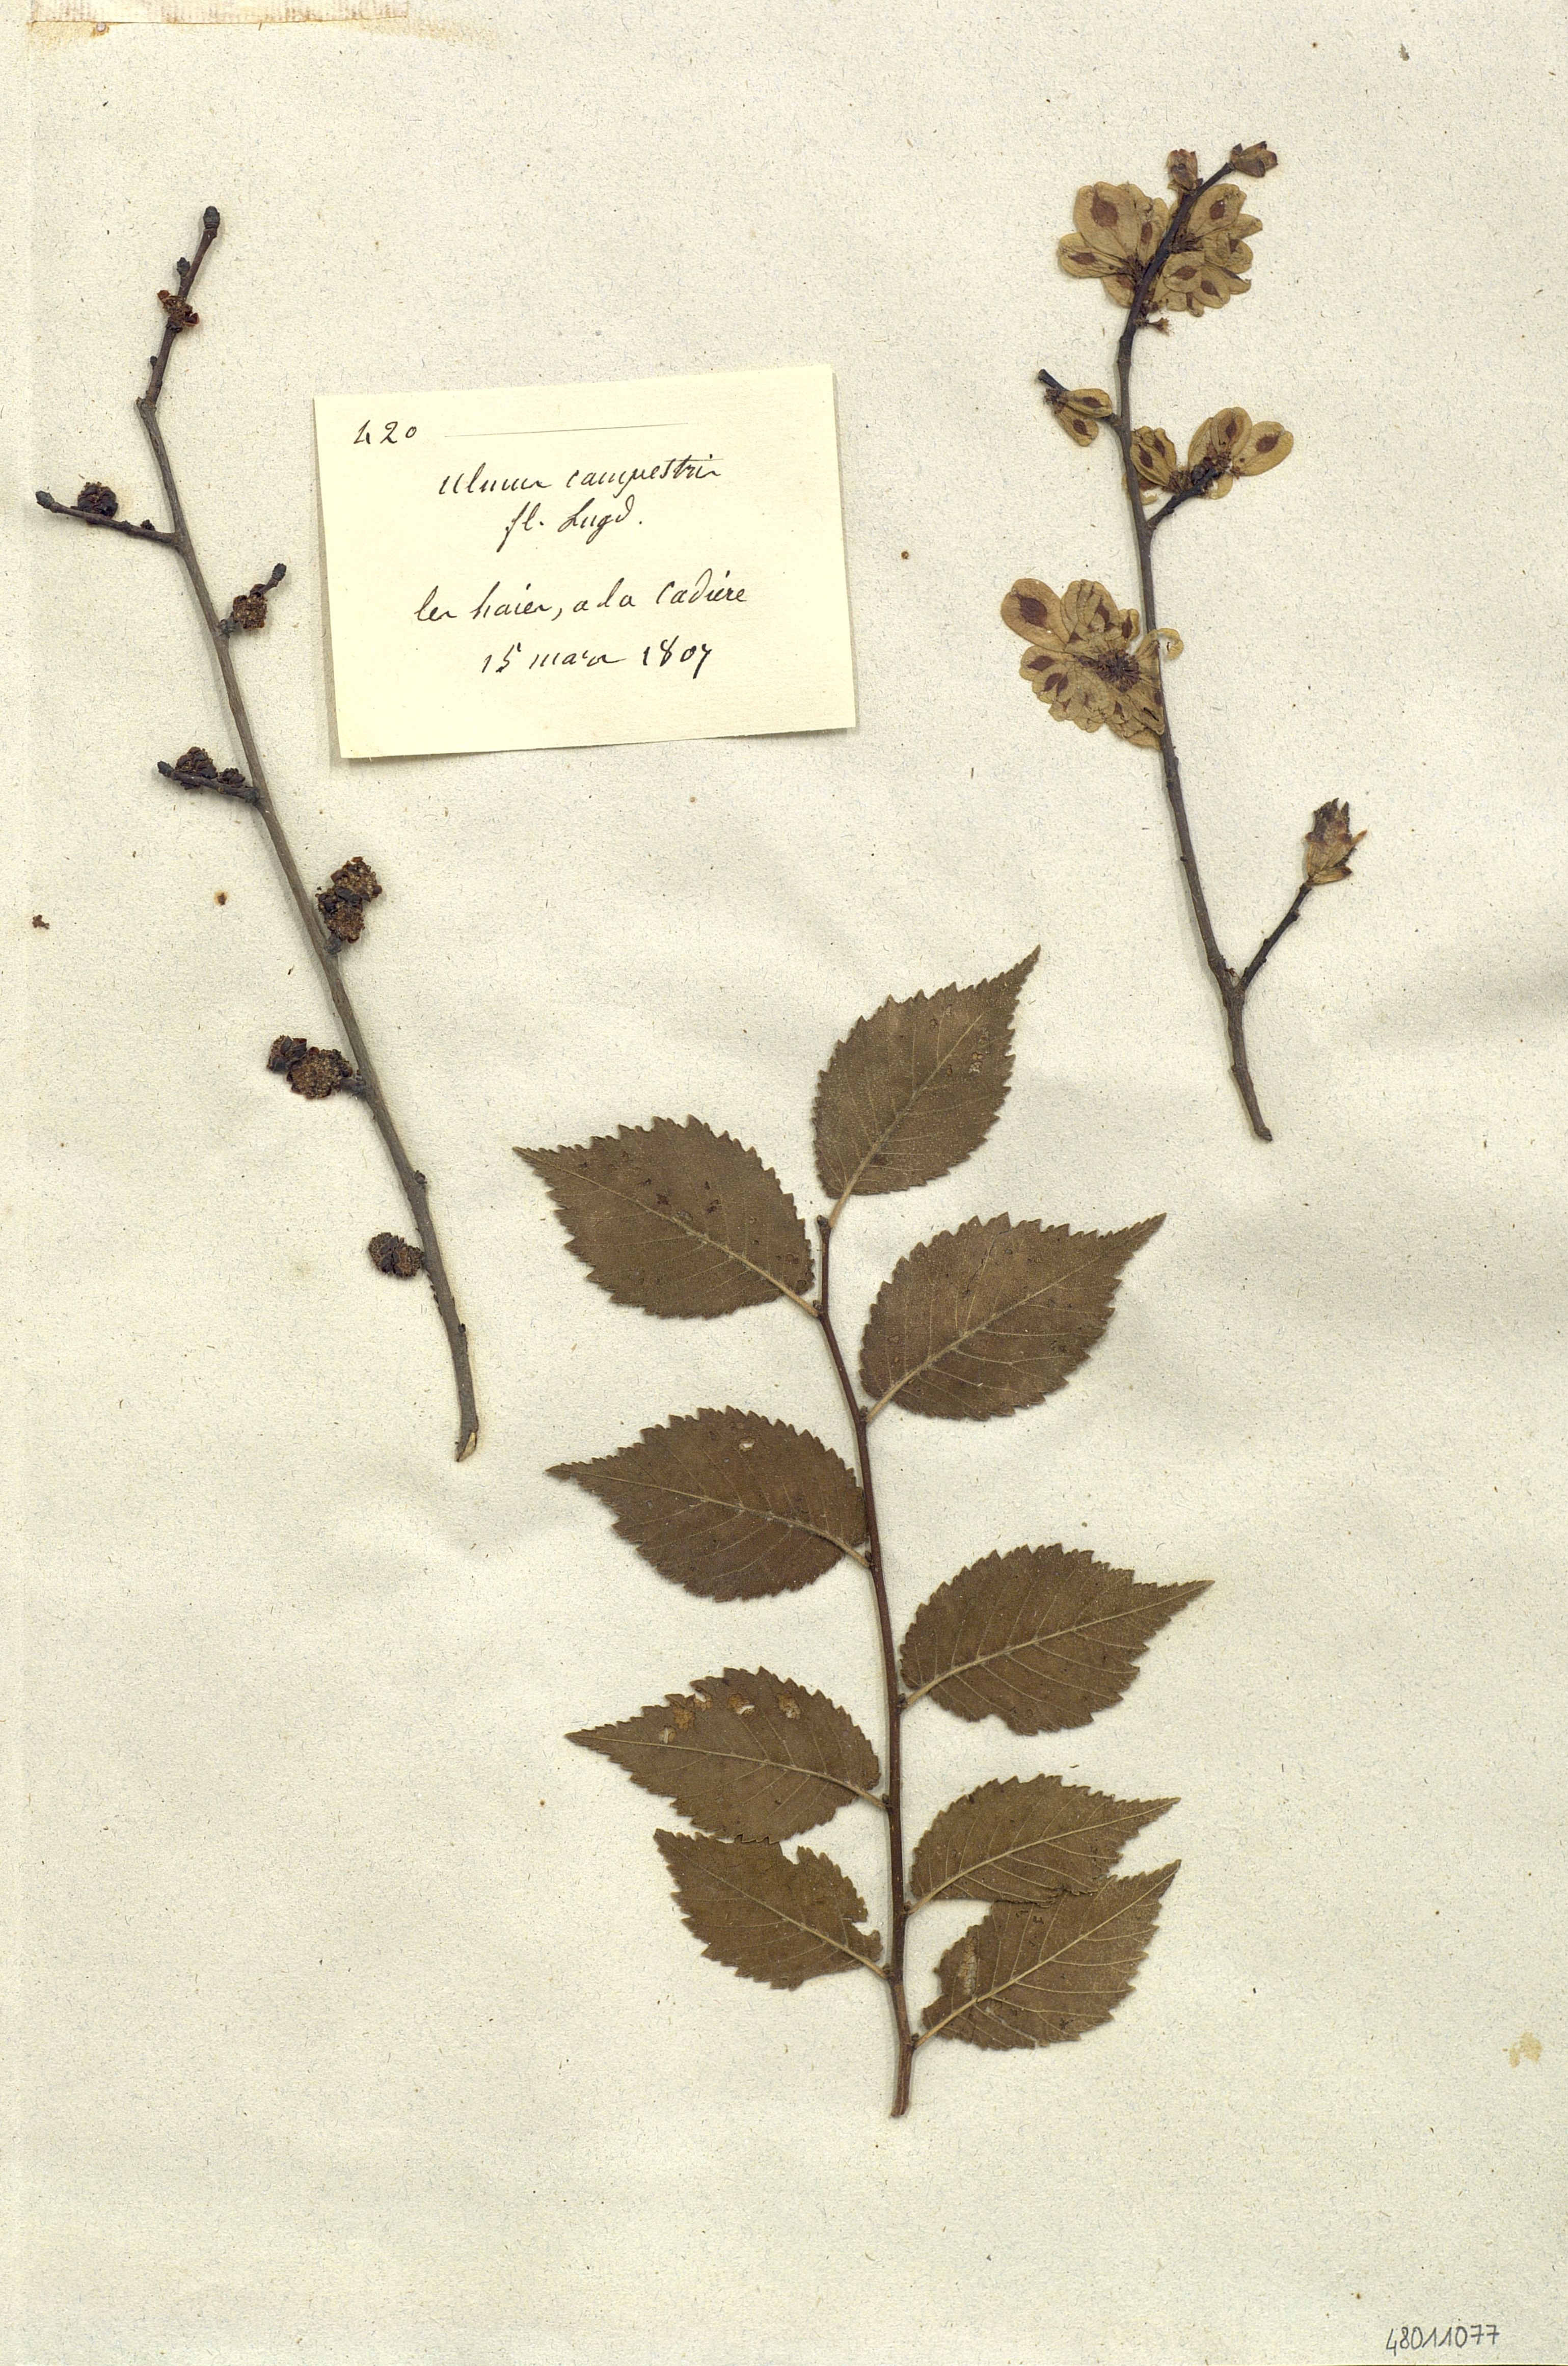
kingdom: Plantae
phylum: Tracheophyta
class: Magnoliopsida
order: Rosales
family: Ulmaceae
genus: Ulmus
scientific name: Ulmus
